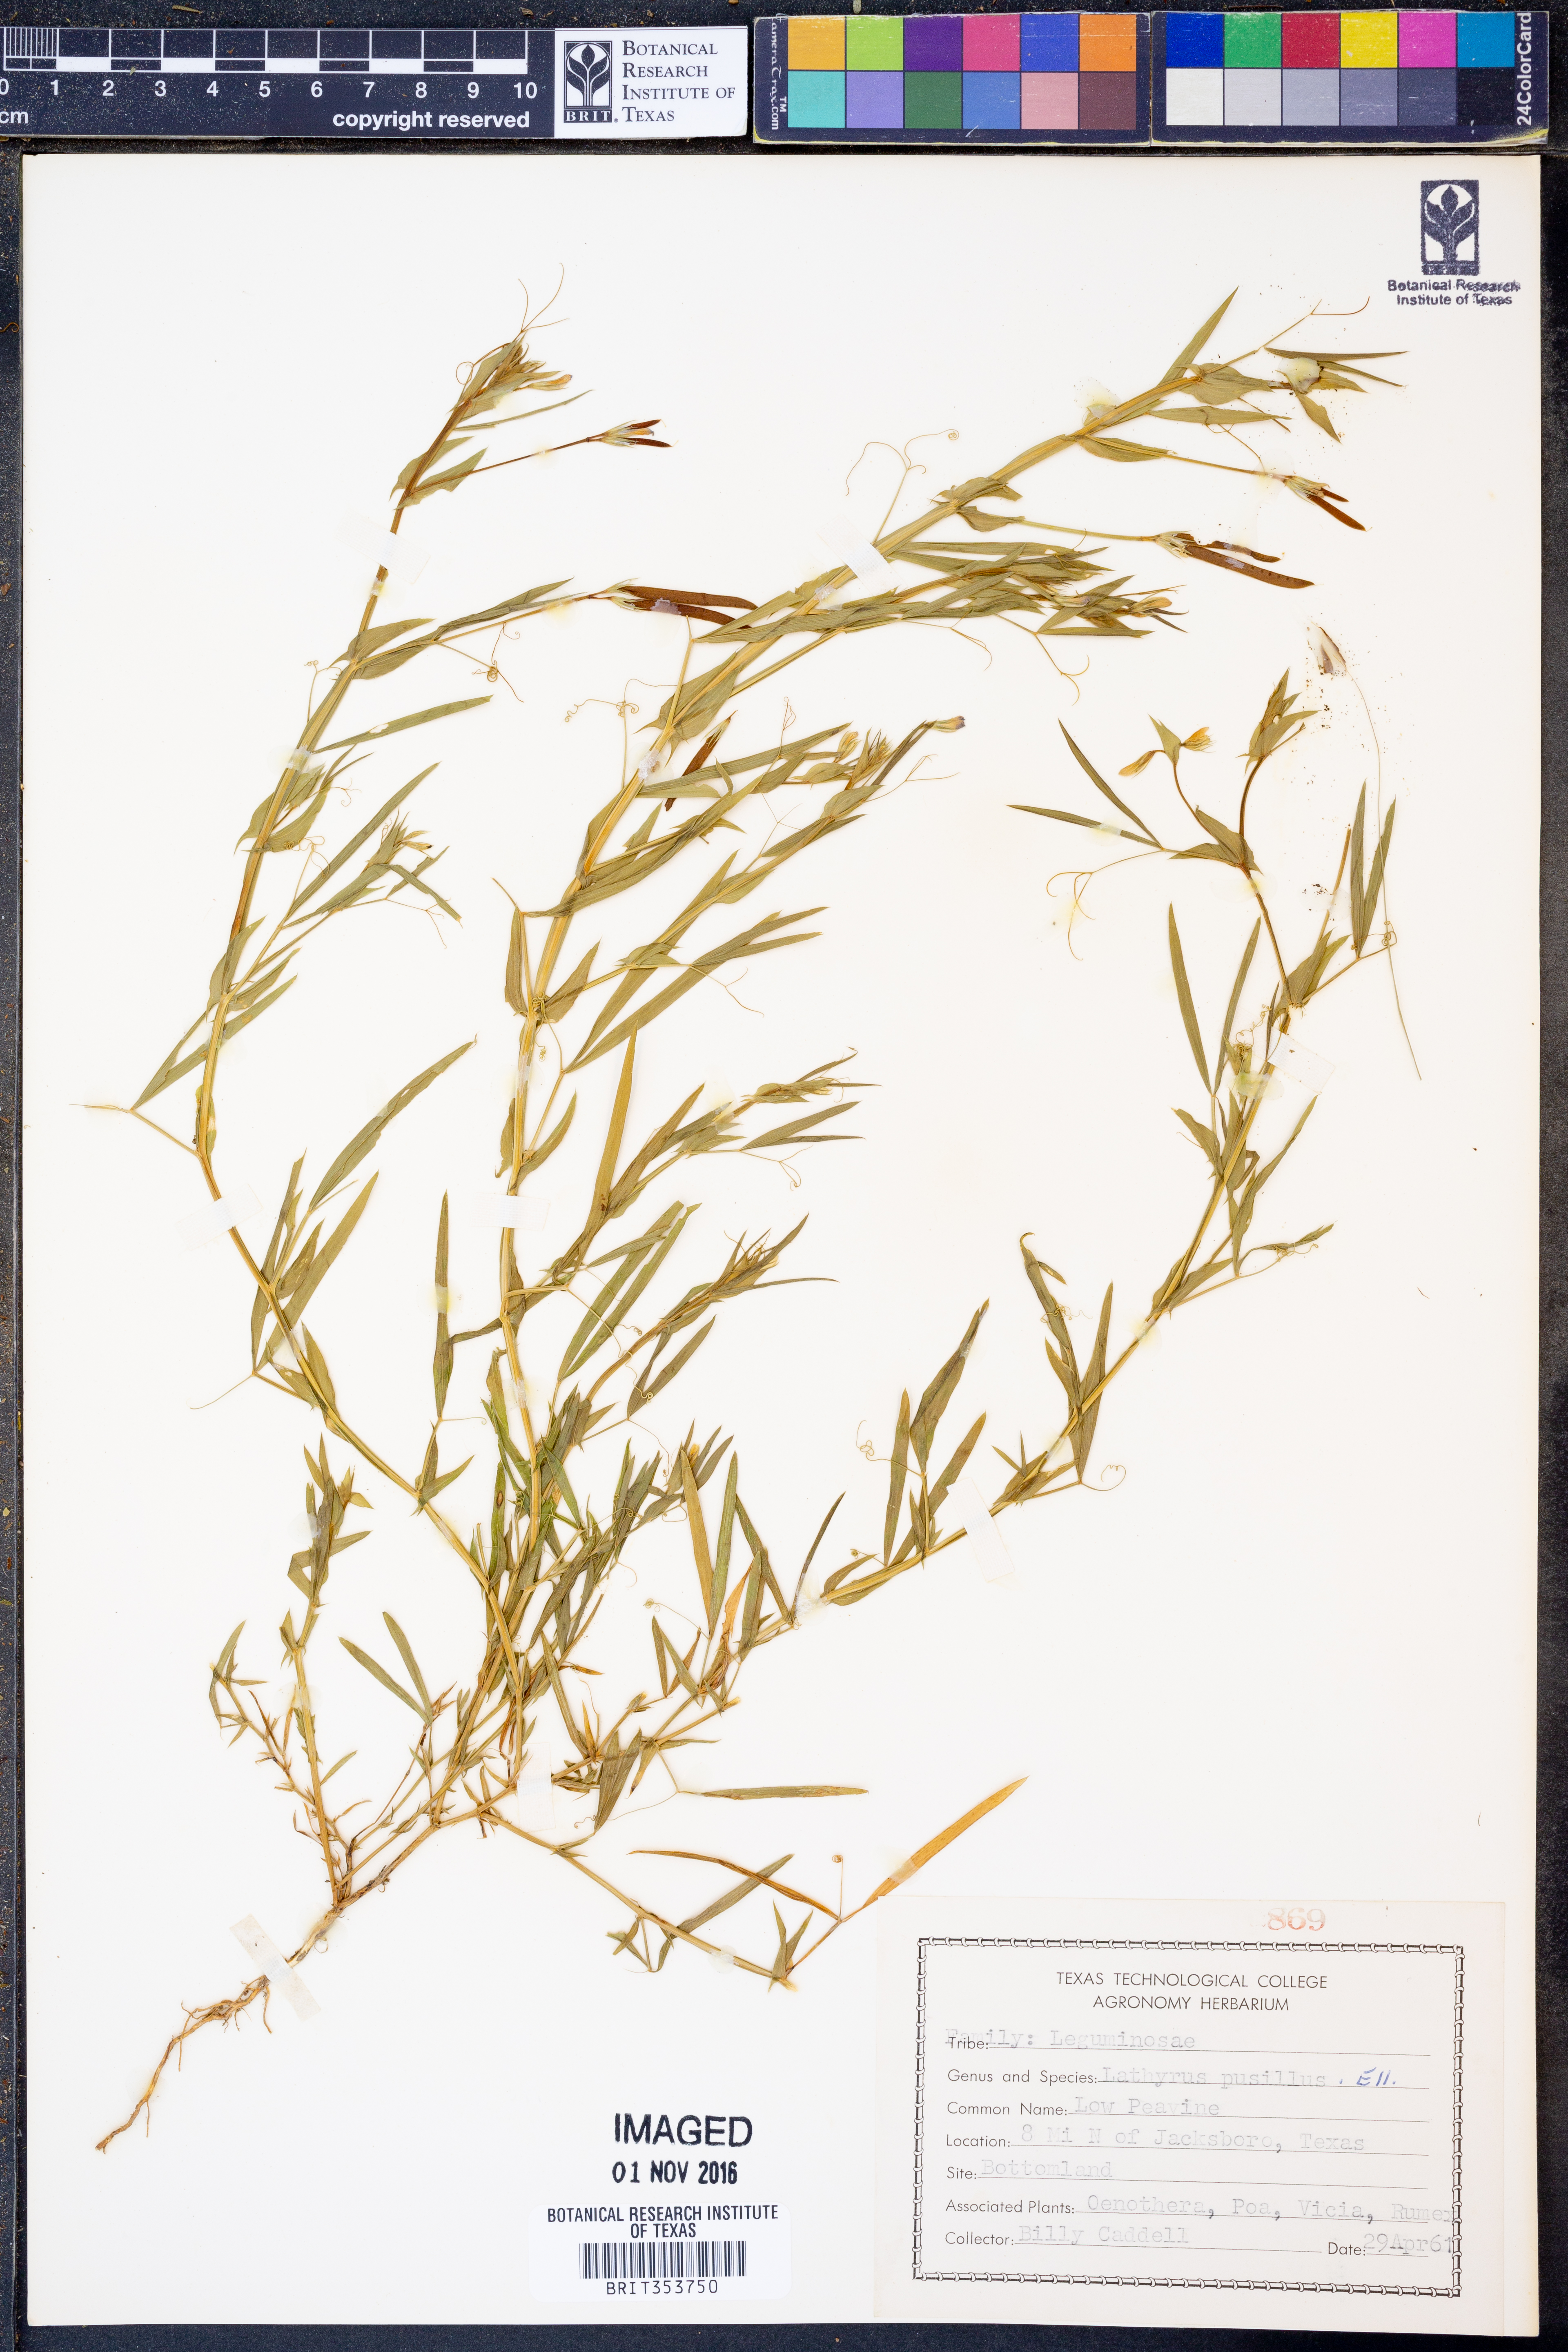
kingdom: Plantae
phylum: Tracheophyta
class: Magnoliopsida
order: Fabales
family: Fabaceae
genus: Lathyrus
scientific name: Lathyrus pusillus
